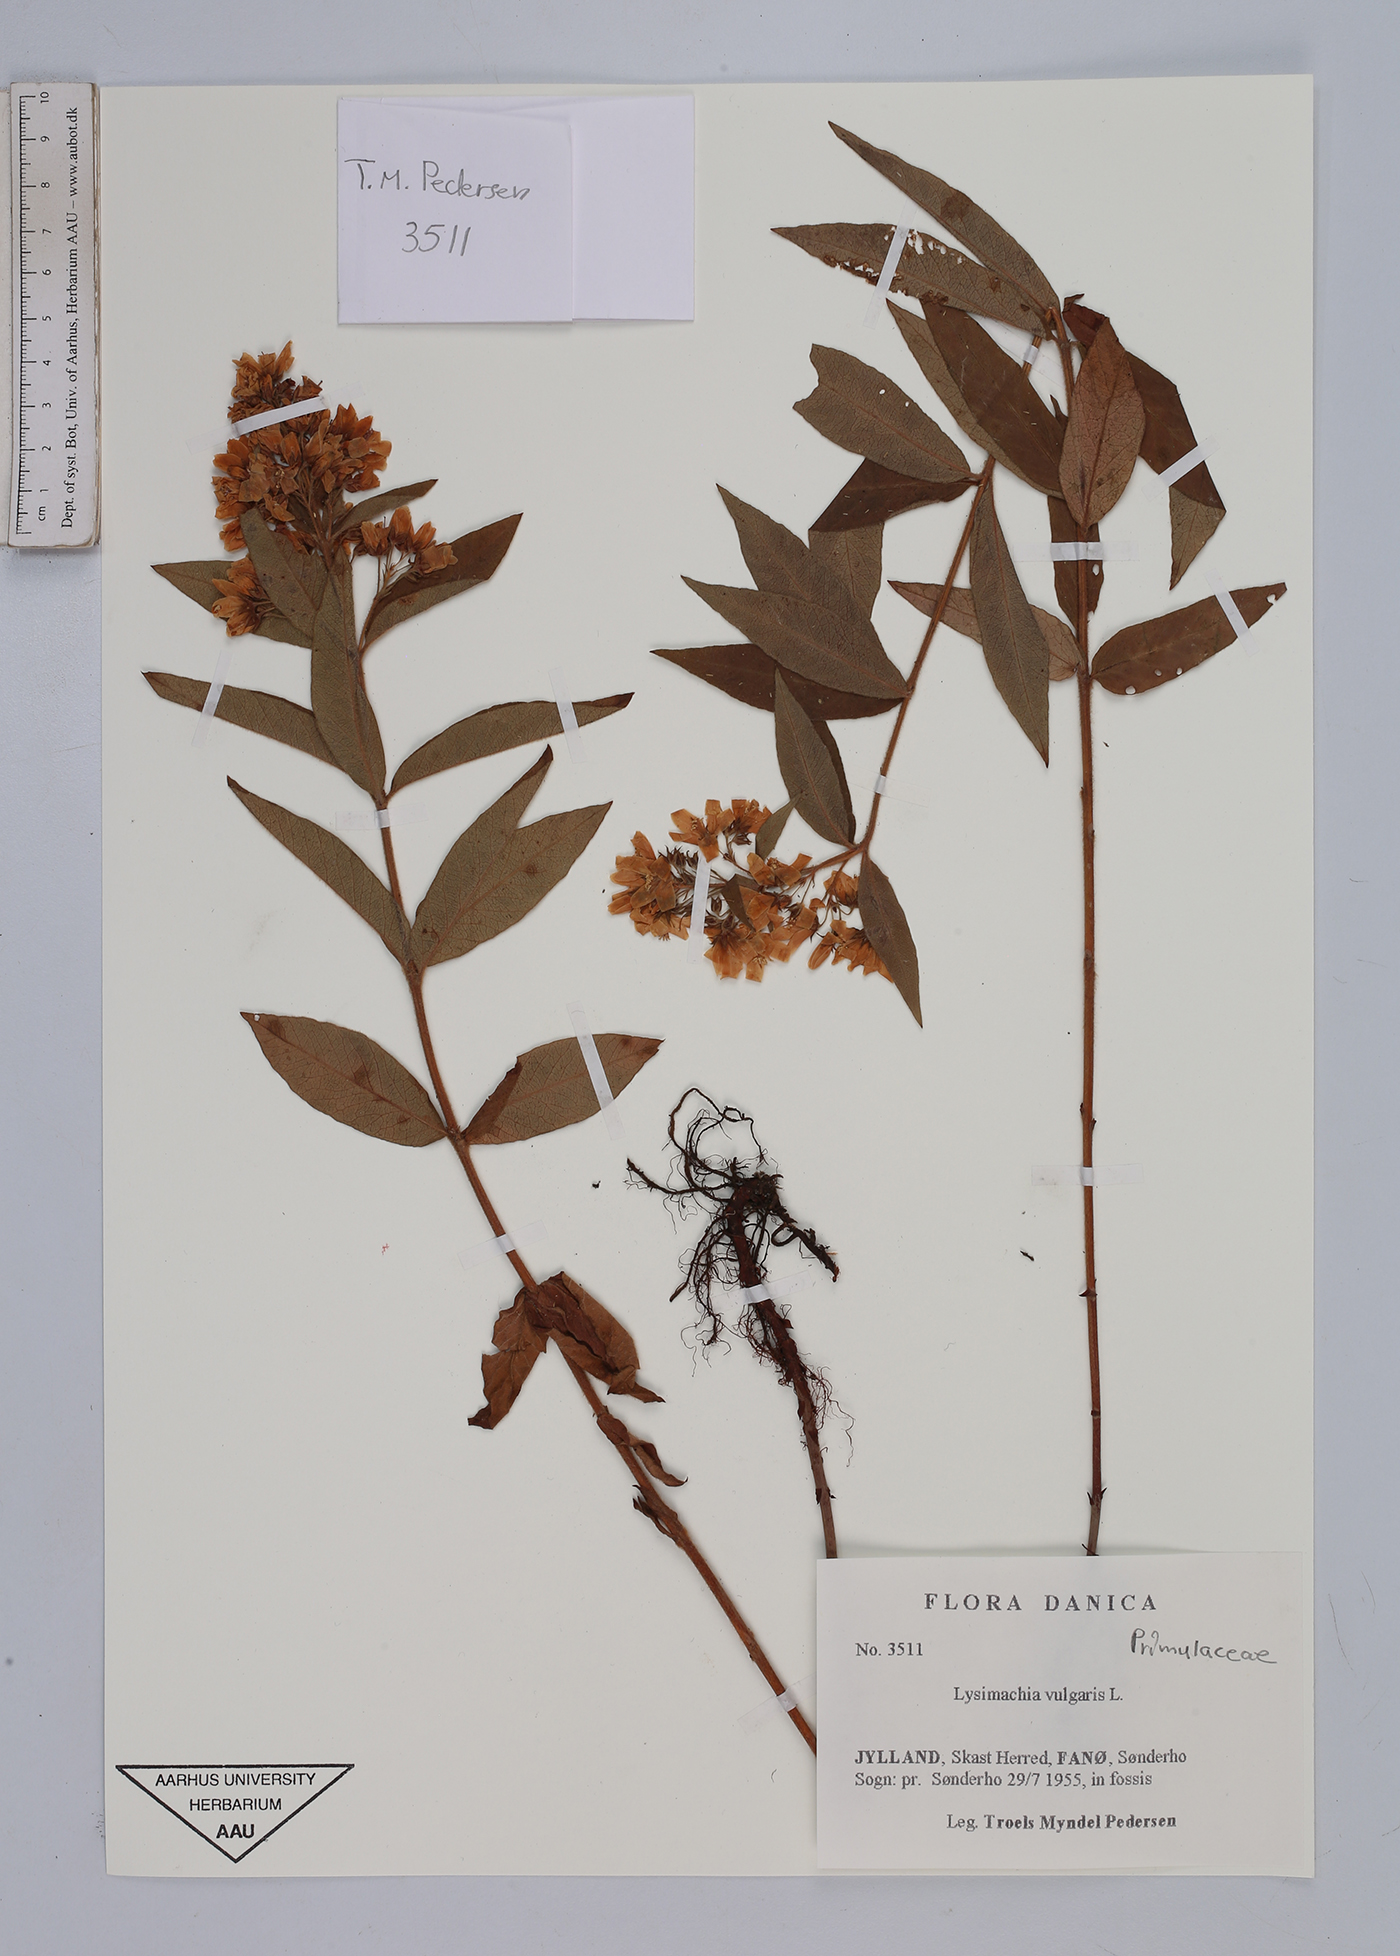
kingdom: Plantae
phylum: Tracheophyta
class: Magnoliopsida
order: Ericales
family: Primulaceae
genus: Lysimachia
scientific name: Lysimachia vulgaris
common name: Yellow loosestrife
